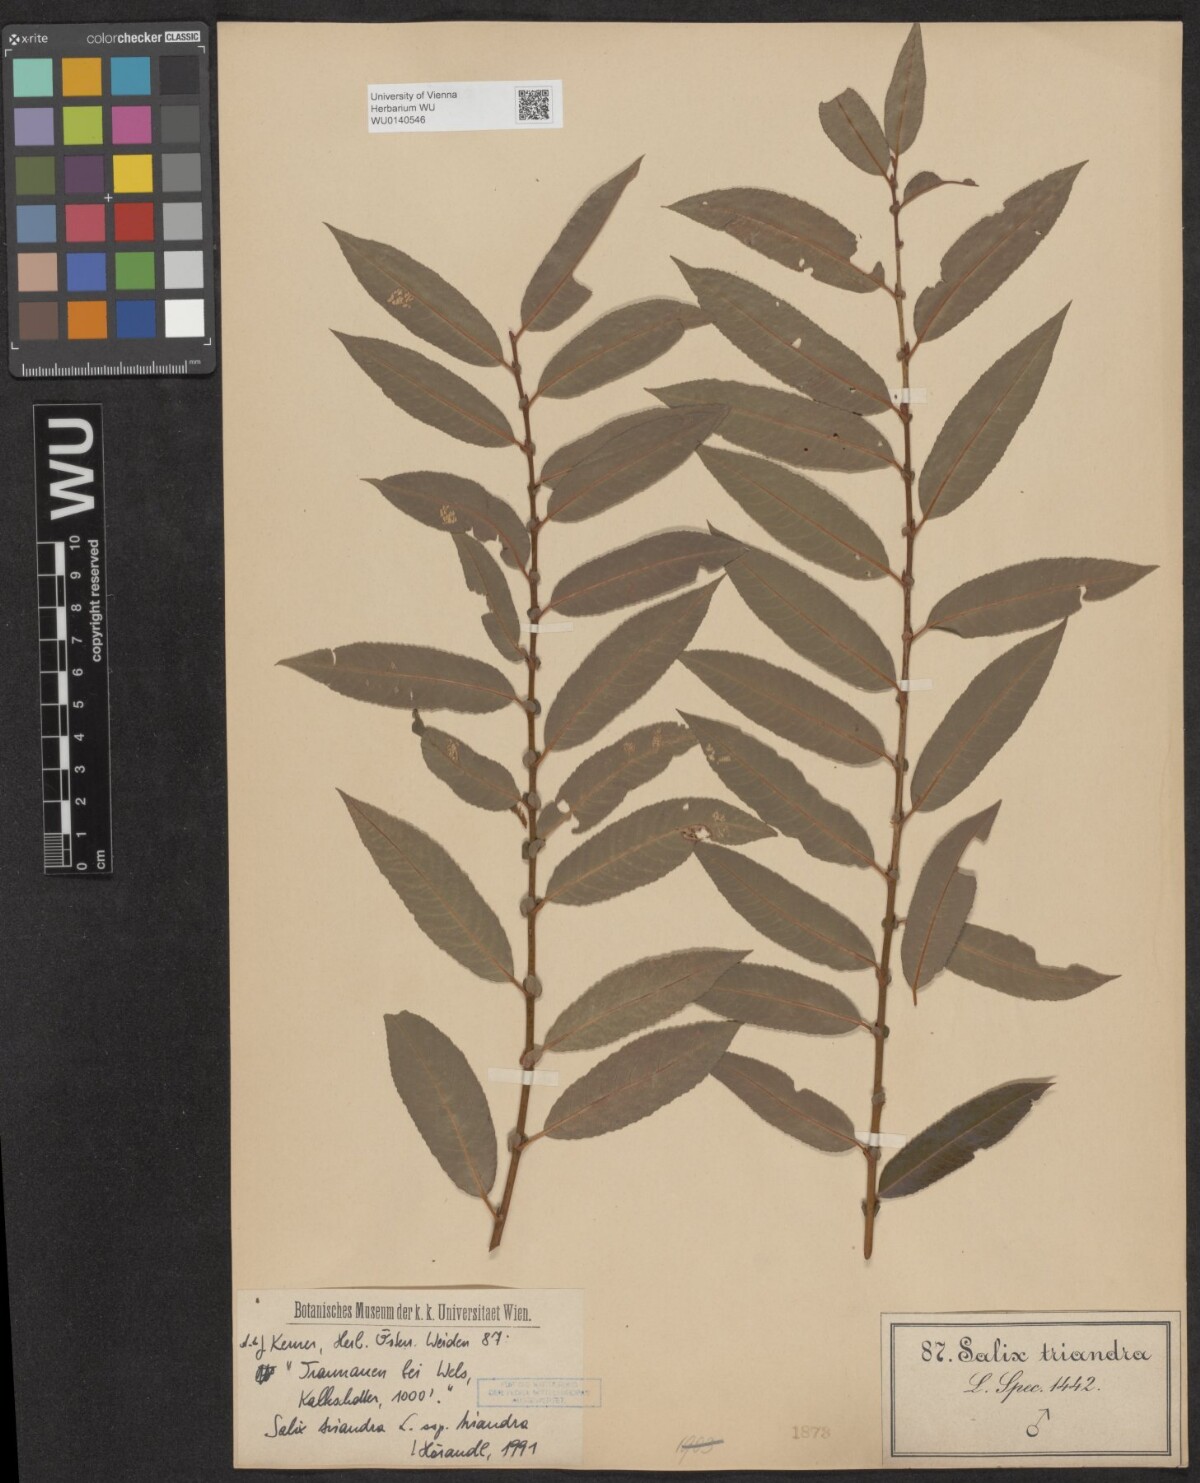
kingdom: Plantae
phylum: Tracheophyta
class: Magnoliopsida
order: Malpighiales
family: Salicaceae
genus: Salix
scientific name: Salix triandra
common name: Almond willow
